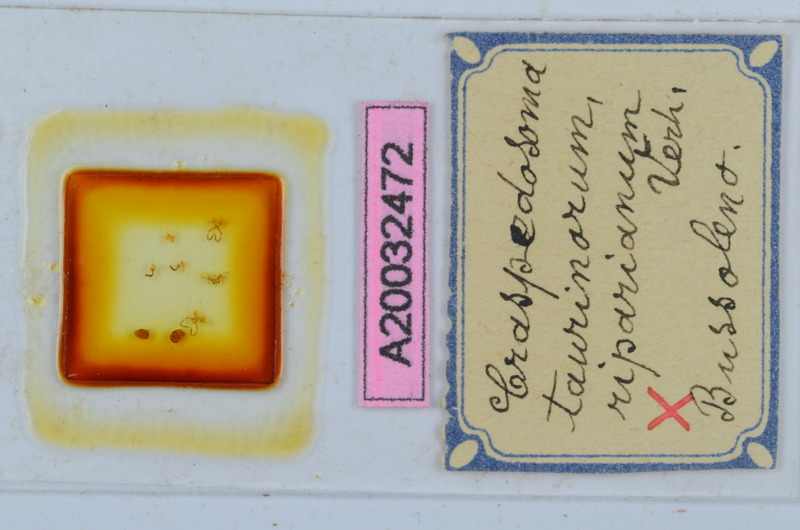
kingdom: Animalia
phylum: Arthropoda
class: Diplopoda
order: Chordeumatida
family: Craspedosomatidae
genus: Craspedosoma
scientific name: Craspedosoma taurinorum
